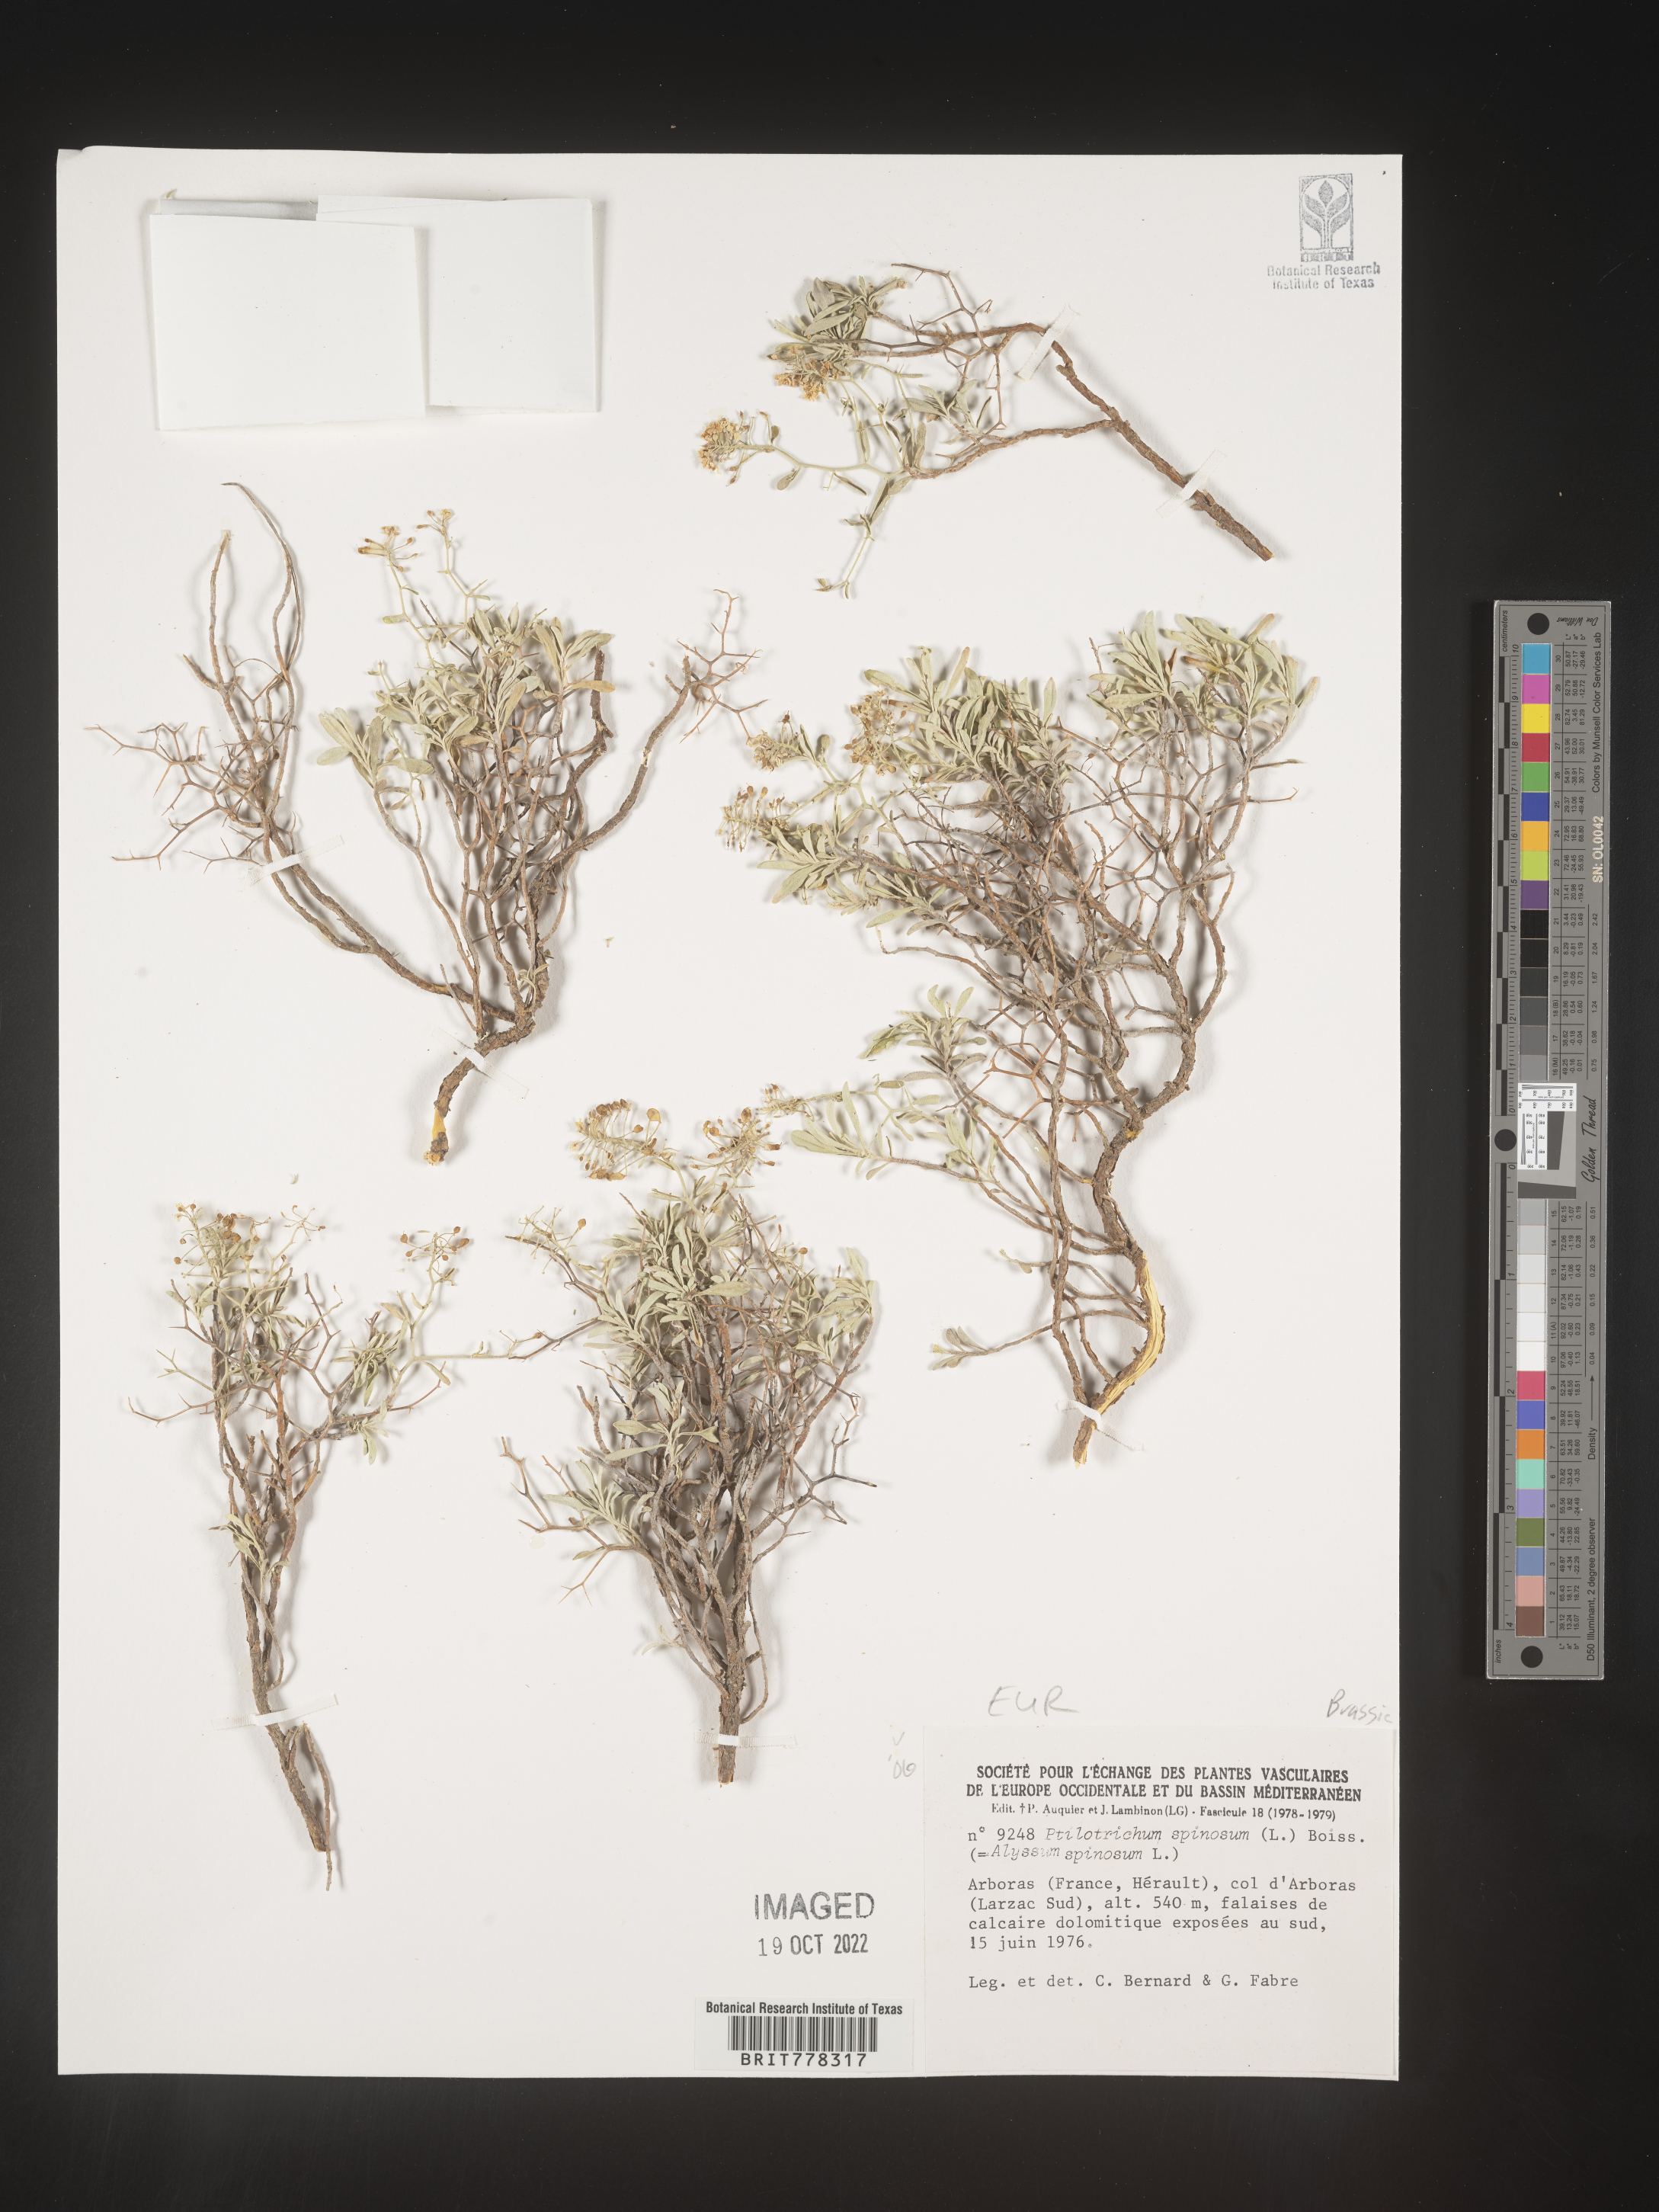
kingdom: Plantae
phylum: Tracheophyta
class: Magnoliopsida
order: Brassicales
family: Brassicaceae
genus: Ptilotrichum
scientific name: Ptilotrichum
